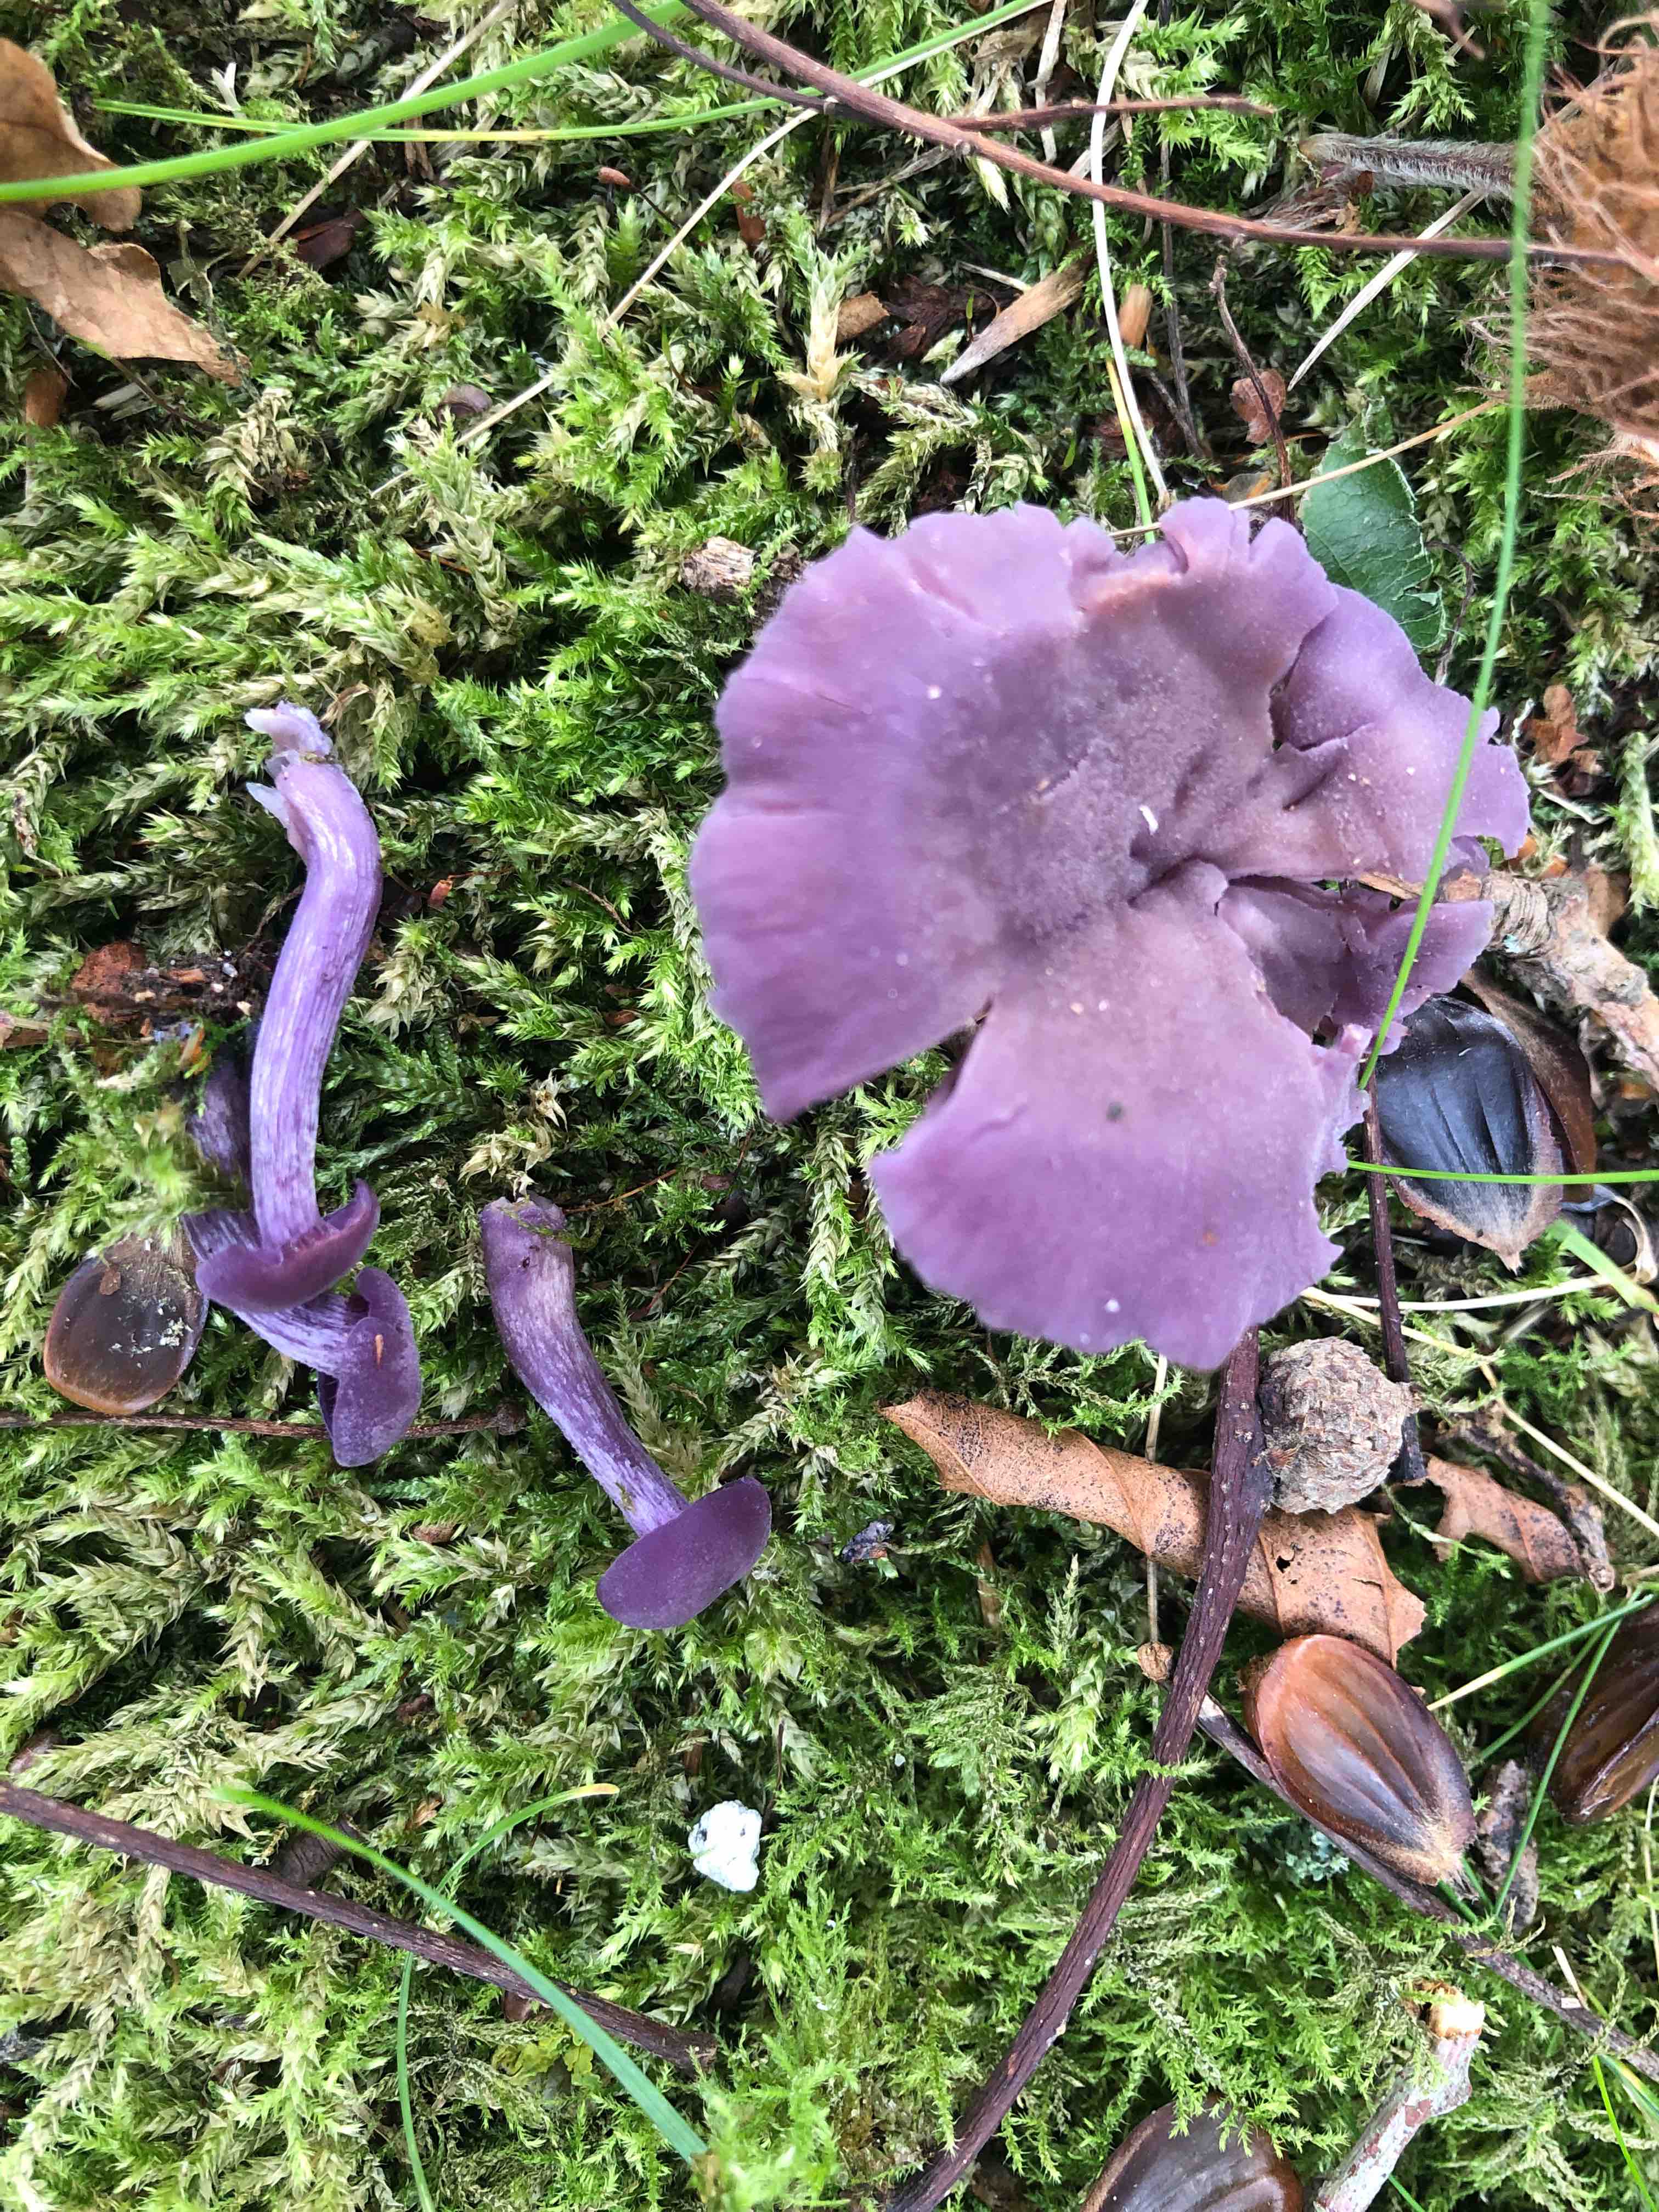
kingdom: Fungi
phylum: Basidiomycota
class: Agaricomycetes
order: Agaricales
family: Hydnangiaceae
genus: Laccaria
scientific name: Laccaria amethystina
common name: violet ametysthat
